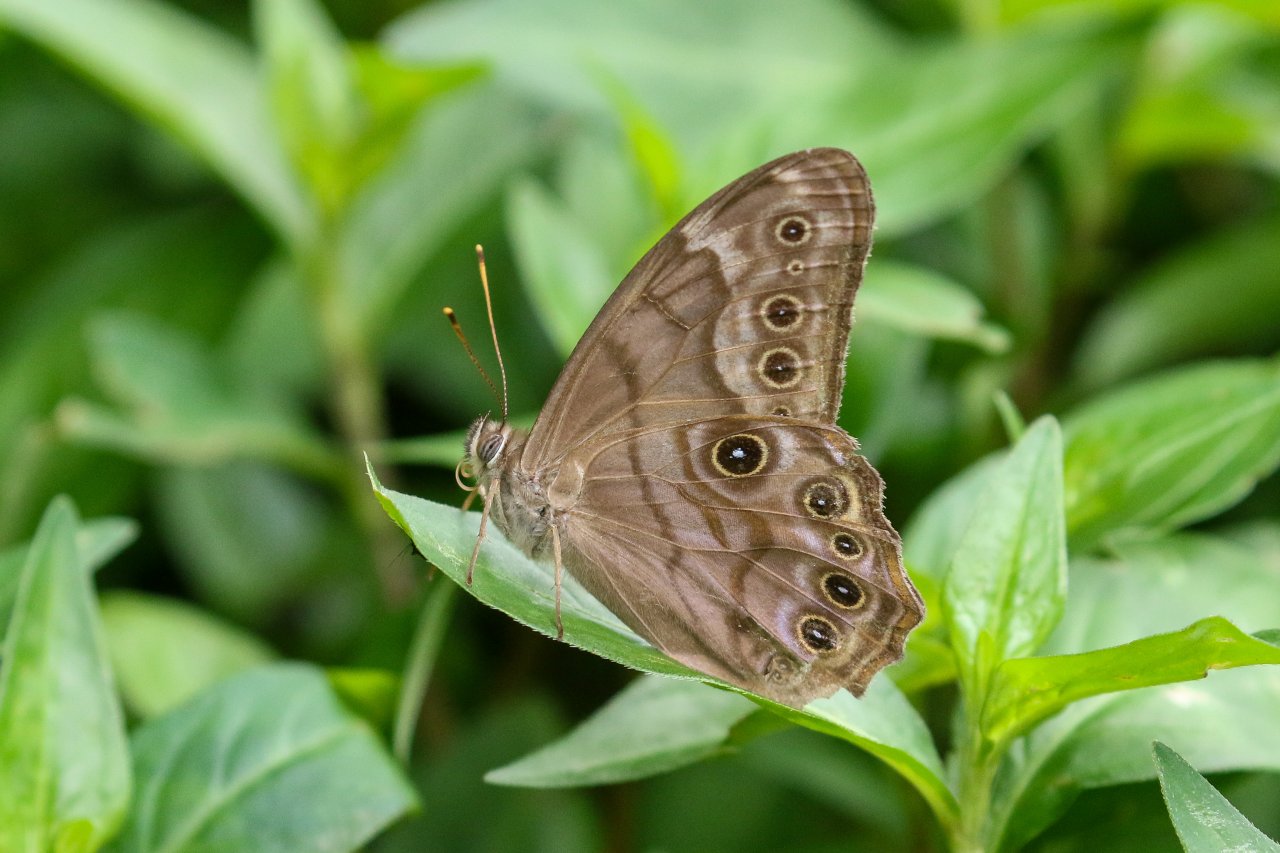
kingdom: Animalia
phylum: Arthropoda
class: Insecta
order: Lepidoptera
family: Nymphalidae
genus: Lethe
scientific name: Lethe creola
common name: Creole Pearly-Eye
